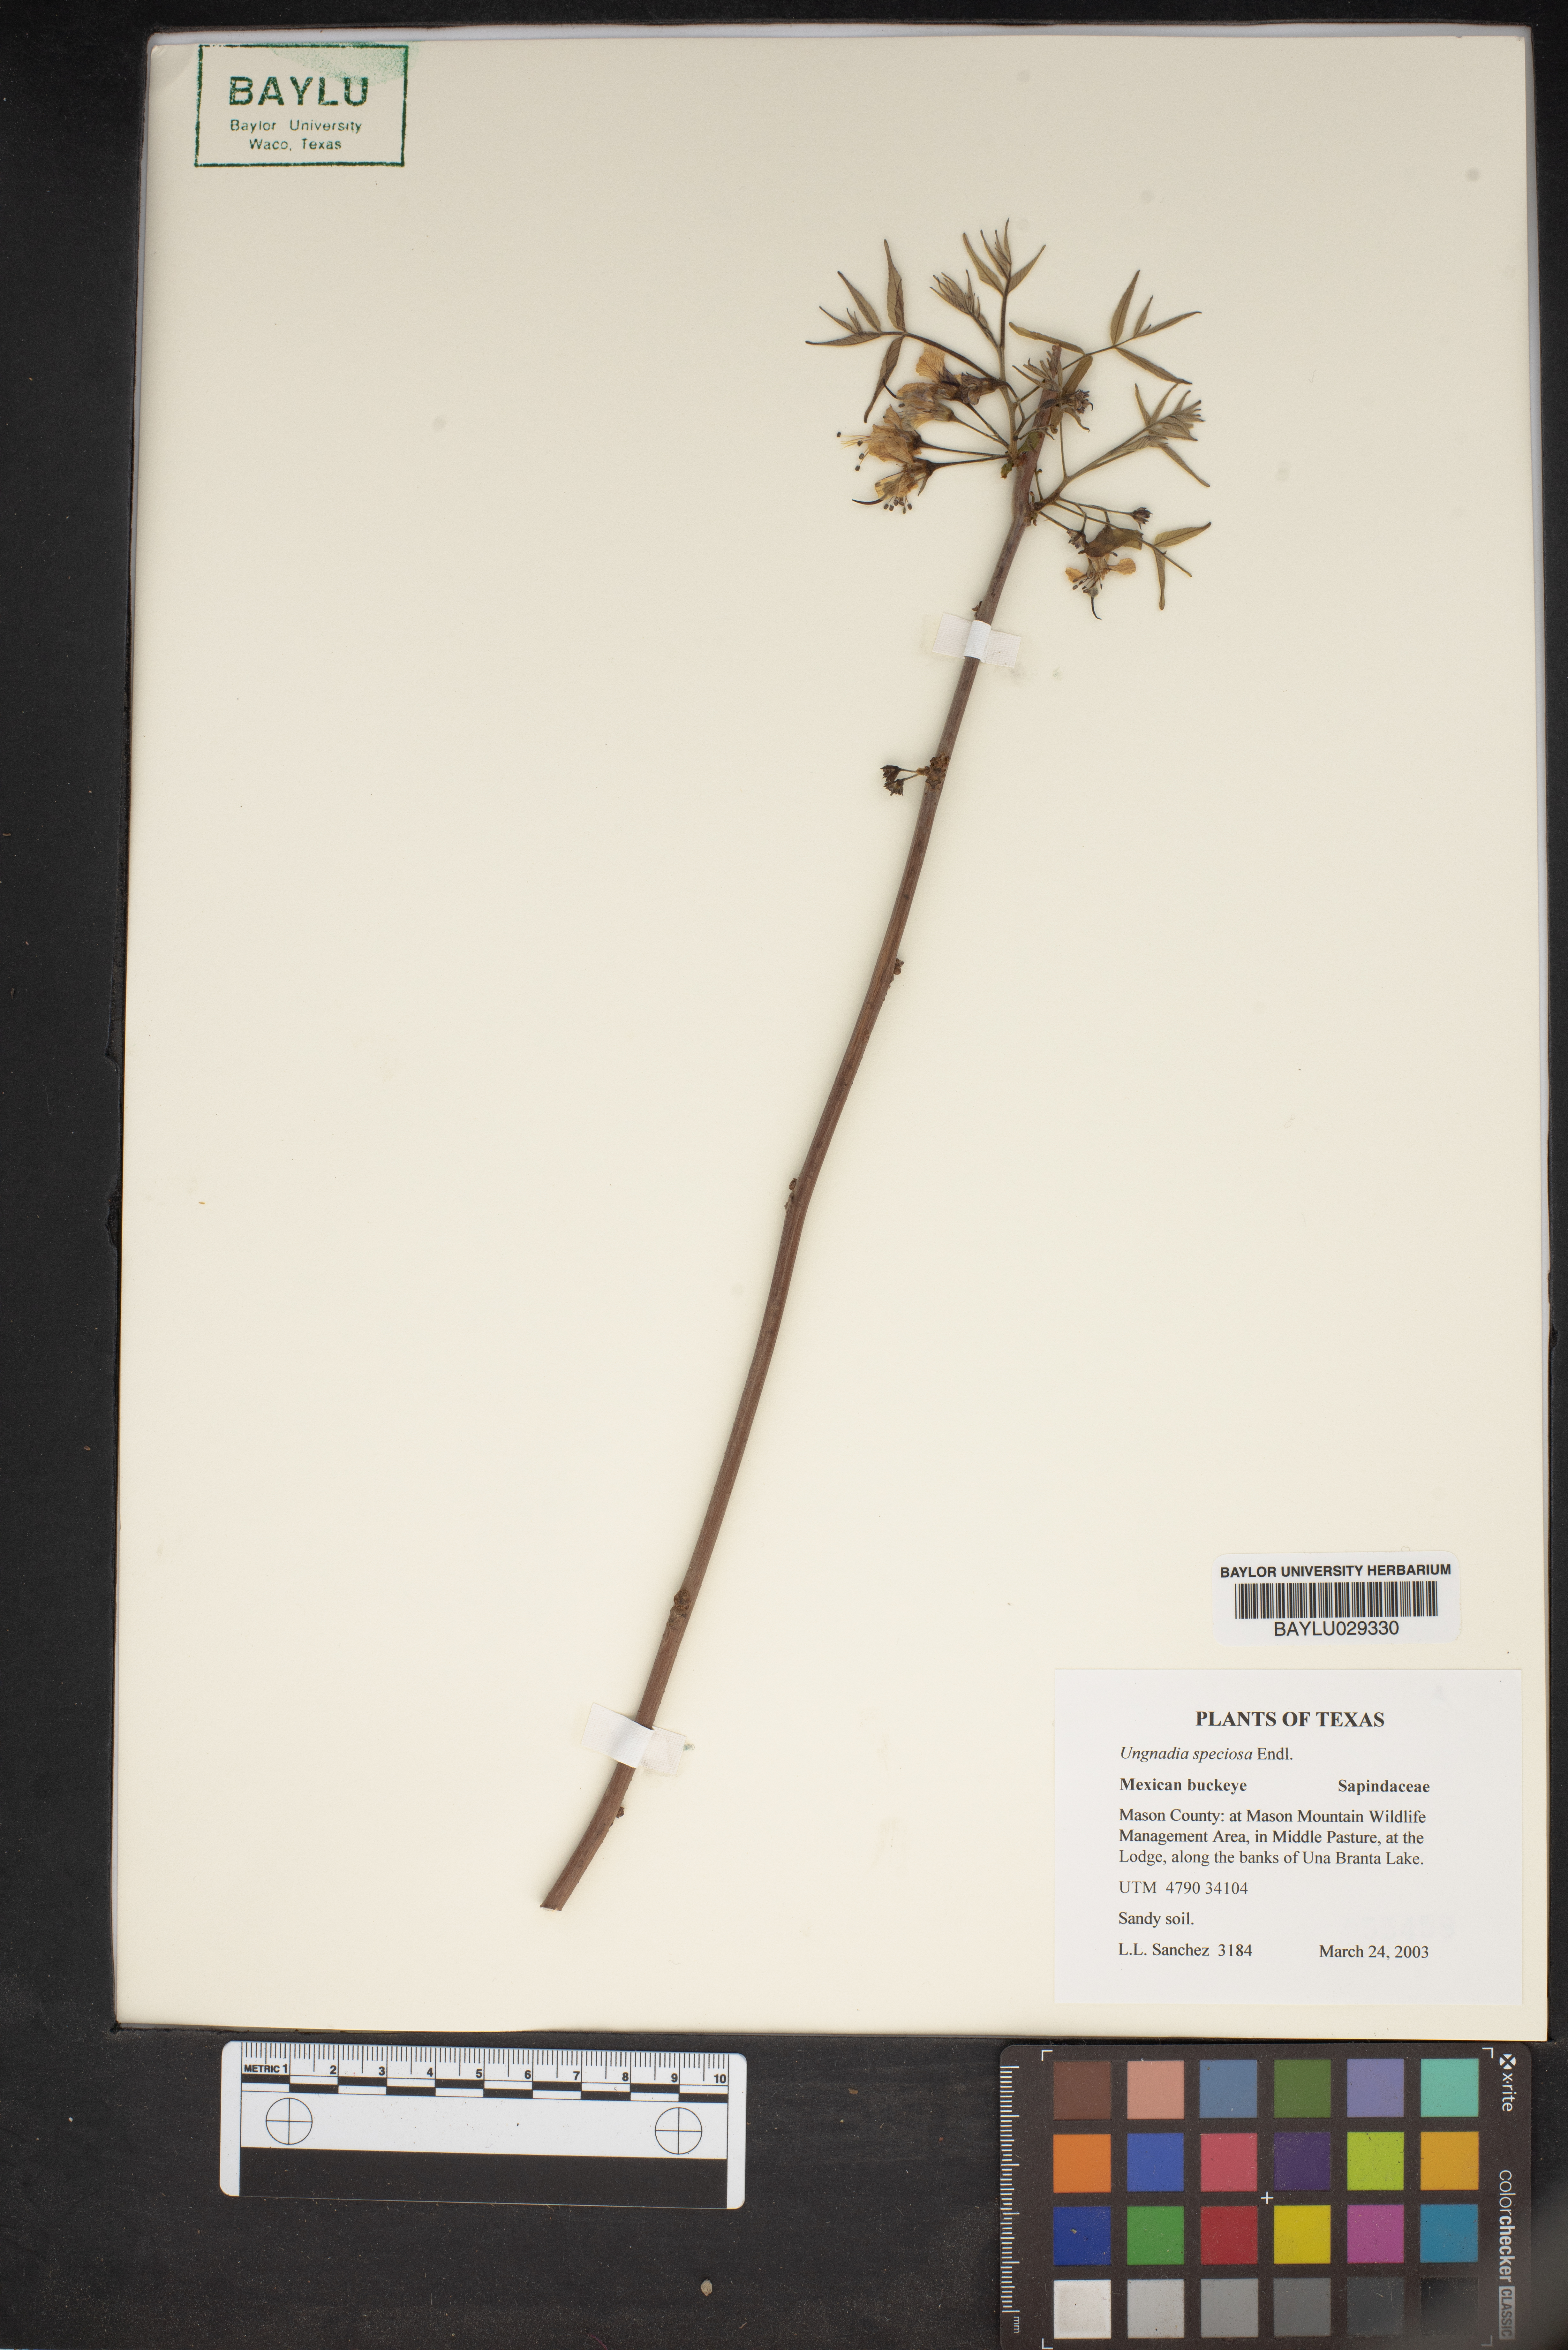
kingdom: Plantae
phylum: Tracheophyta
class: Magnoliopsida
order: Sapindales
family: Sapindaceae
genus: Ungnadia
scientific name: Ungnadia speciosa
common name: Texas-buckeye
